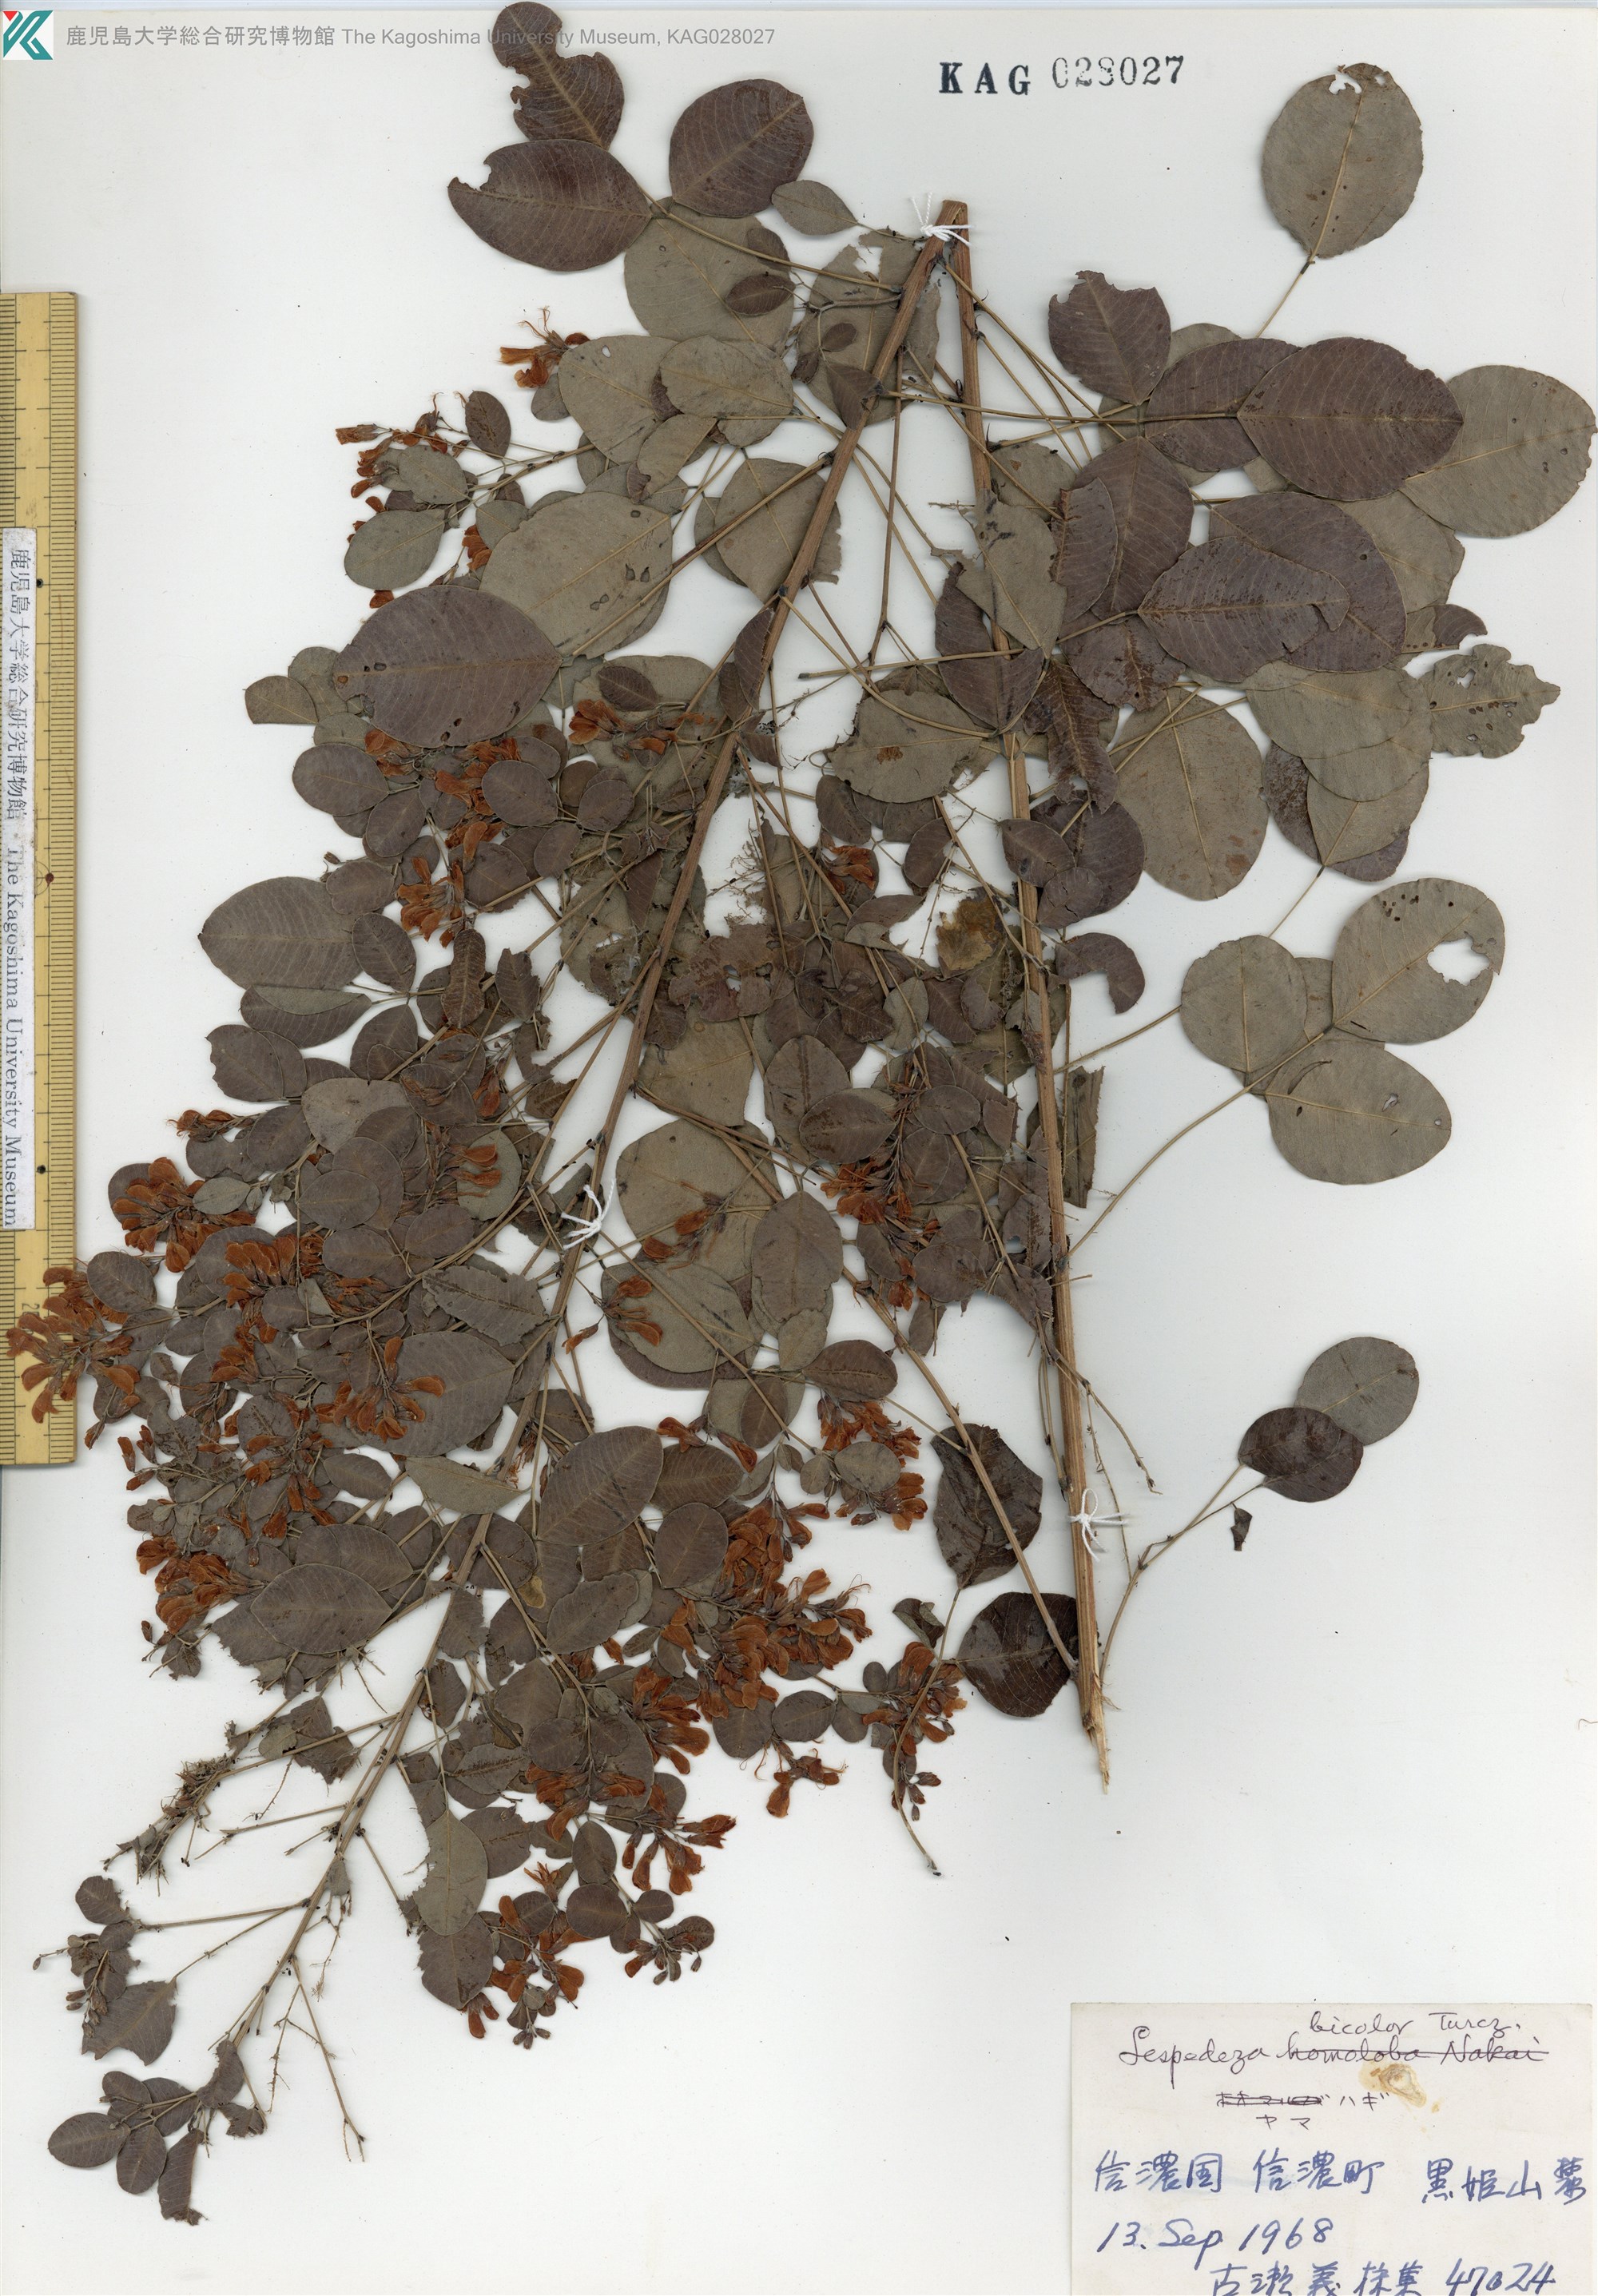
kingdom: Plantae
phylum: Tracheophyta
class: Magnoliopsida
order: Fabales
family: Fabaceae
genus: Lespedeza
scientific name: Lespedeza bicolor
